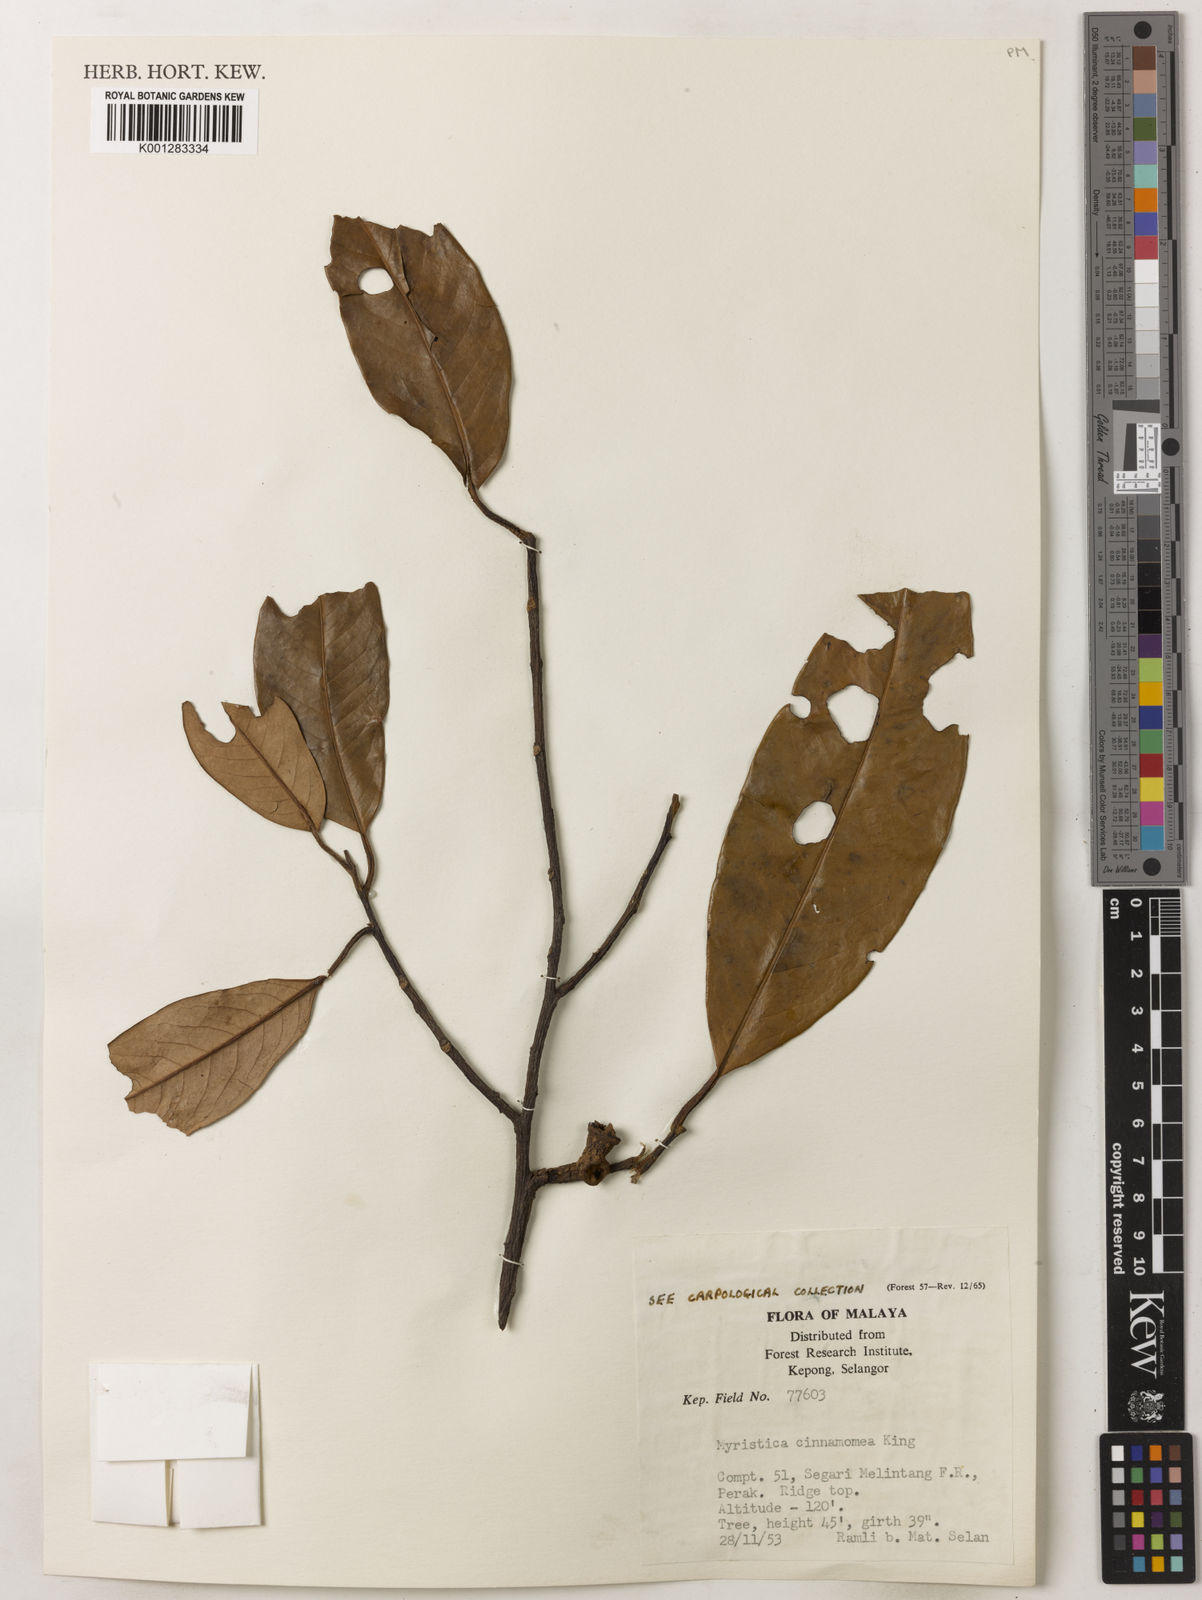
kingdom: Plantae
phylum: Tracheophyta
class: Magnoliopsida
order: Magnoliales
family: Myristicaceae
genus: Myristica
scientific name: Myristica cinnamomea
